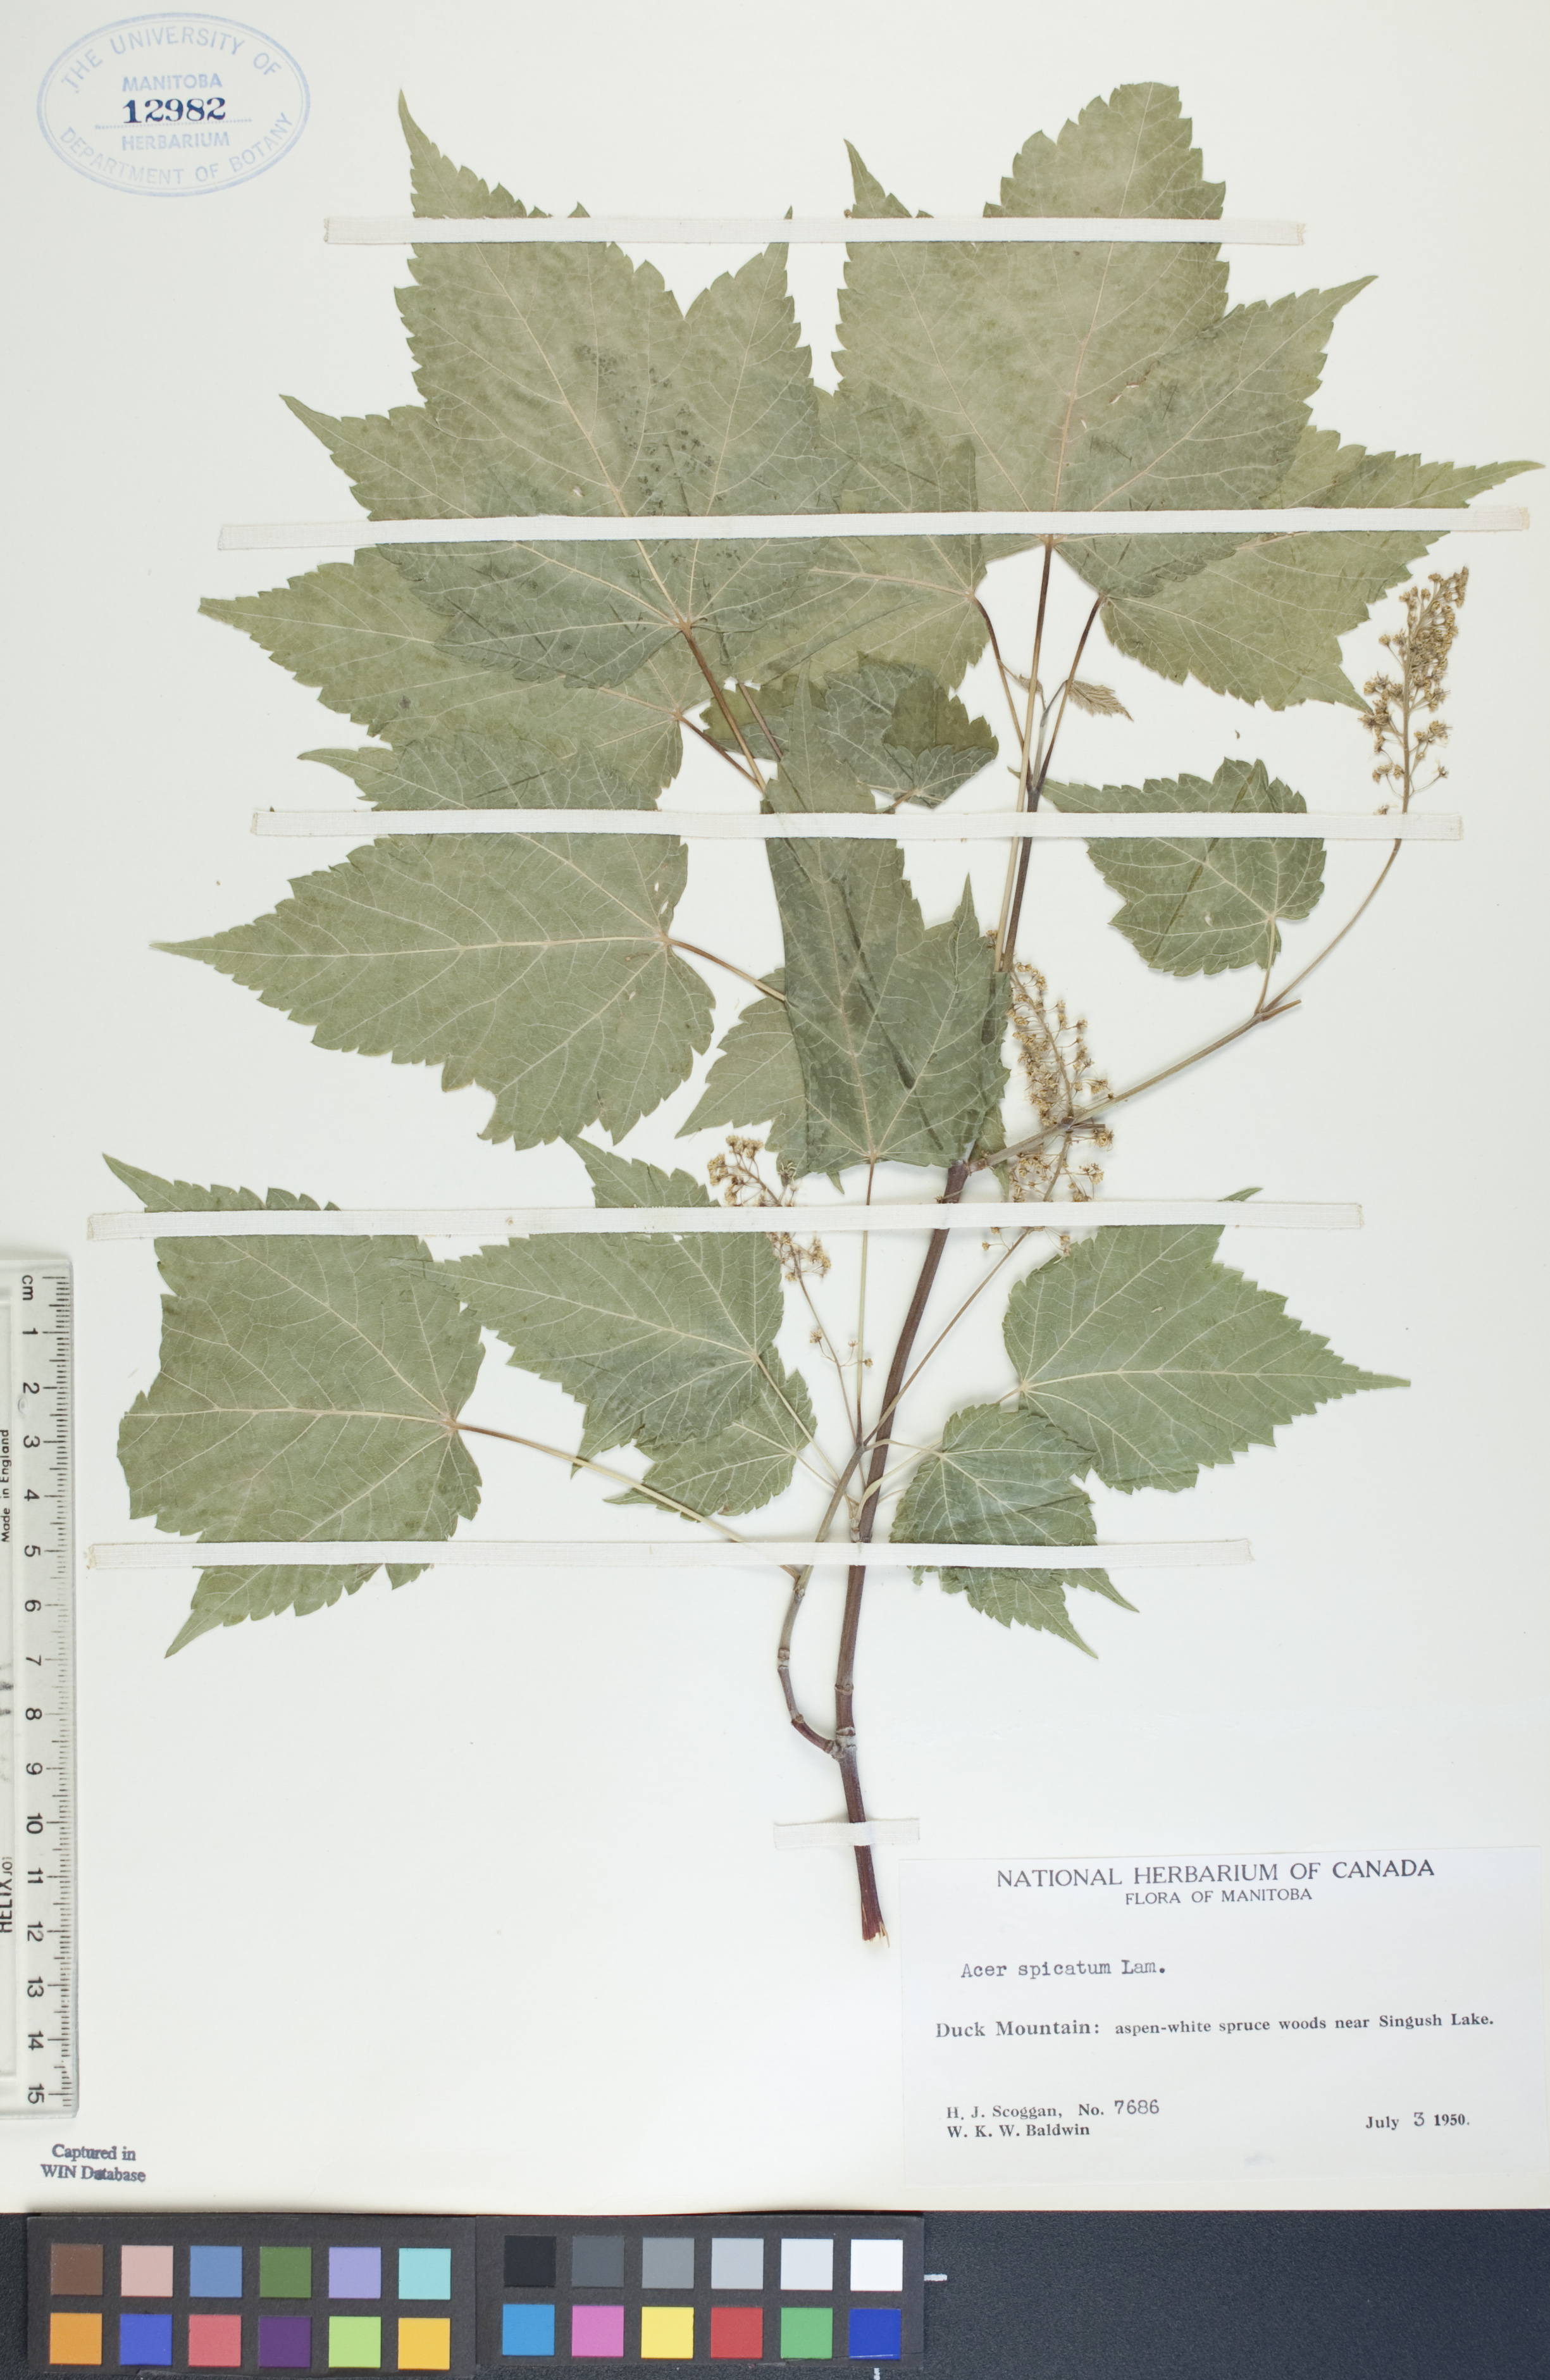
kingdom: Plantae
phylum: Tracheophyta
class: Magnoliopsida
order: Sapindales
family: Sapindaceae
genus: Acer
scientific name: Acer spicatum
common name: Mountain maple
